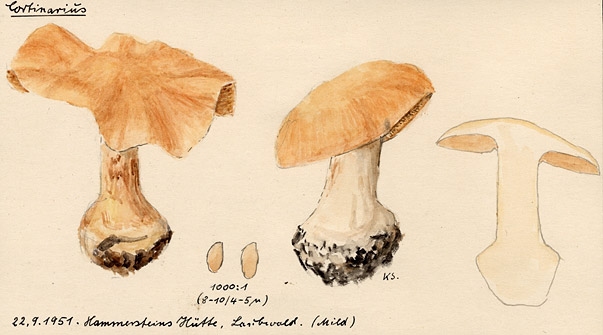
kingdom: Fungi
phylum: Basidiomycota
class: Agaricomycetes
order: Agaricales
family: Cortinariaceae
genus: Cortinarius
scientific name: Cortinarius
